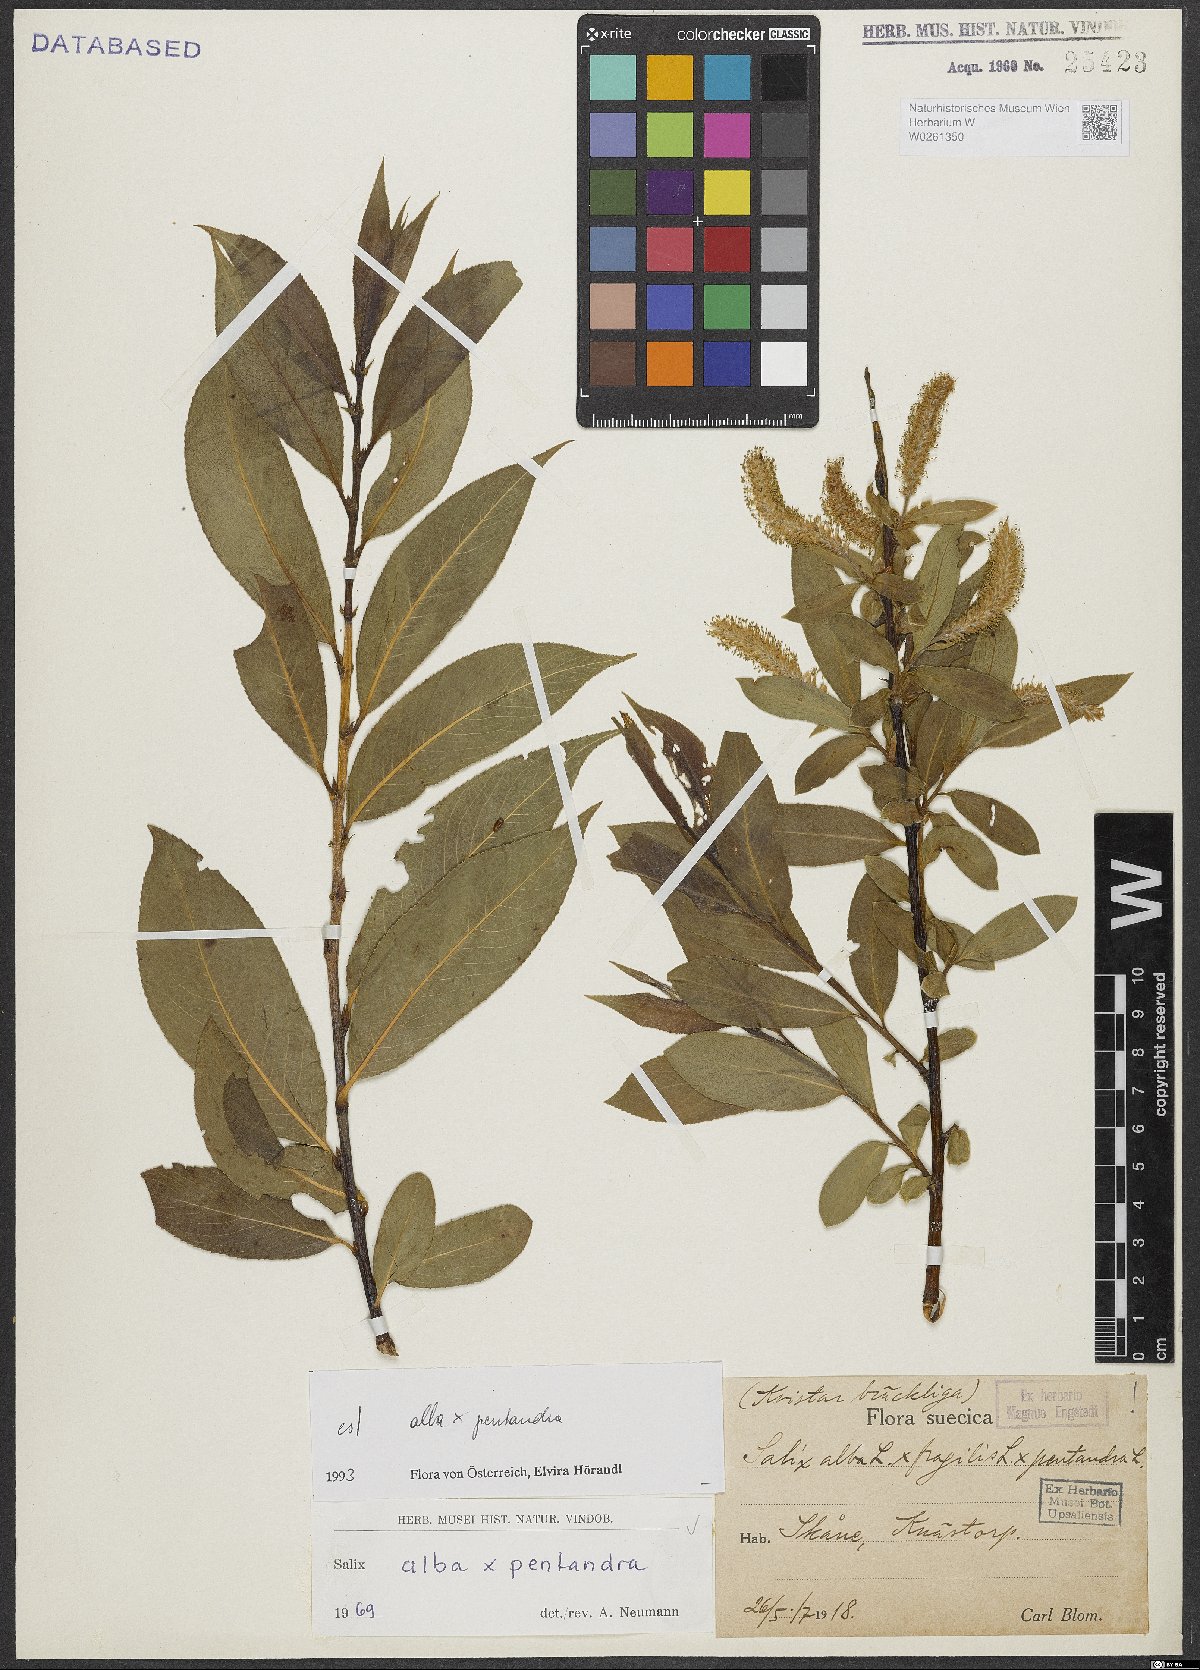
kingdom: Plantae
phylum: Tracheophyta
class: Magnoliopsida
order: Malpighiales
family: Salicaceae
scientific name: Salicaceae
